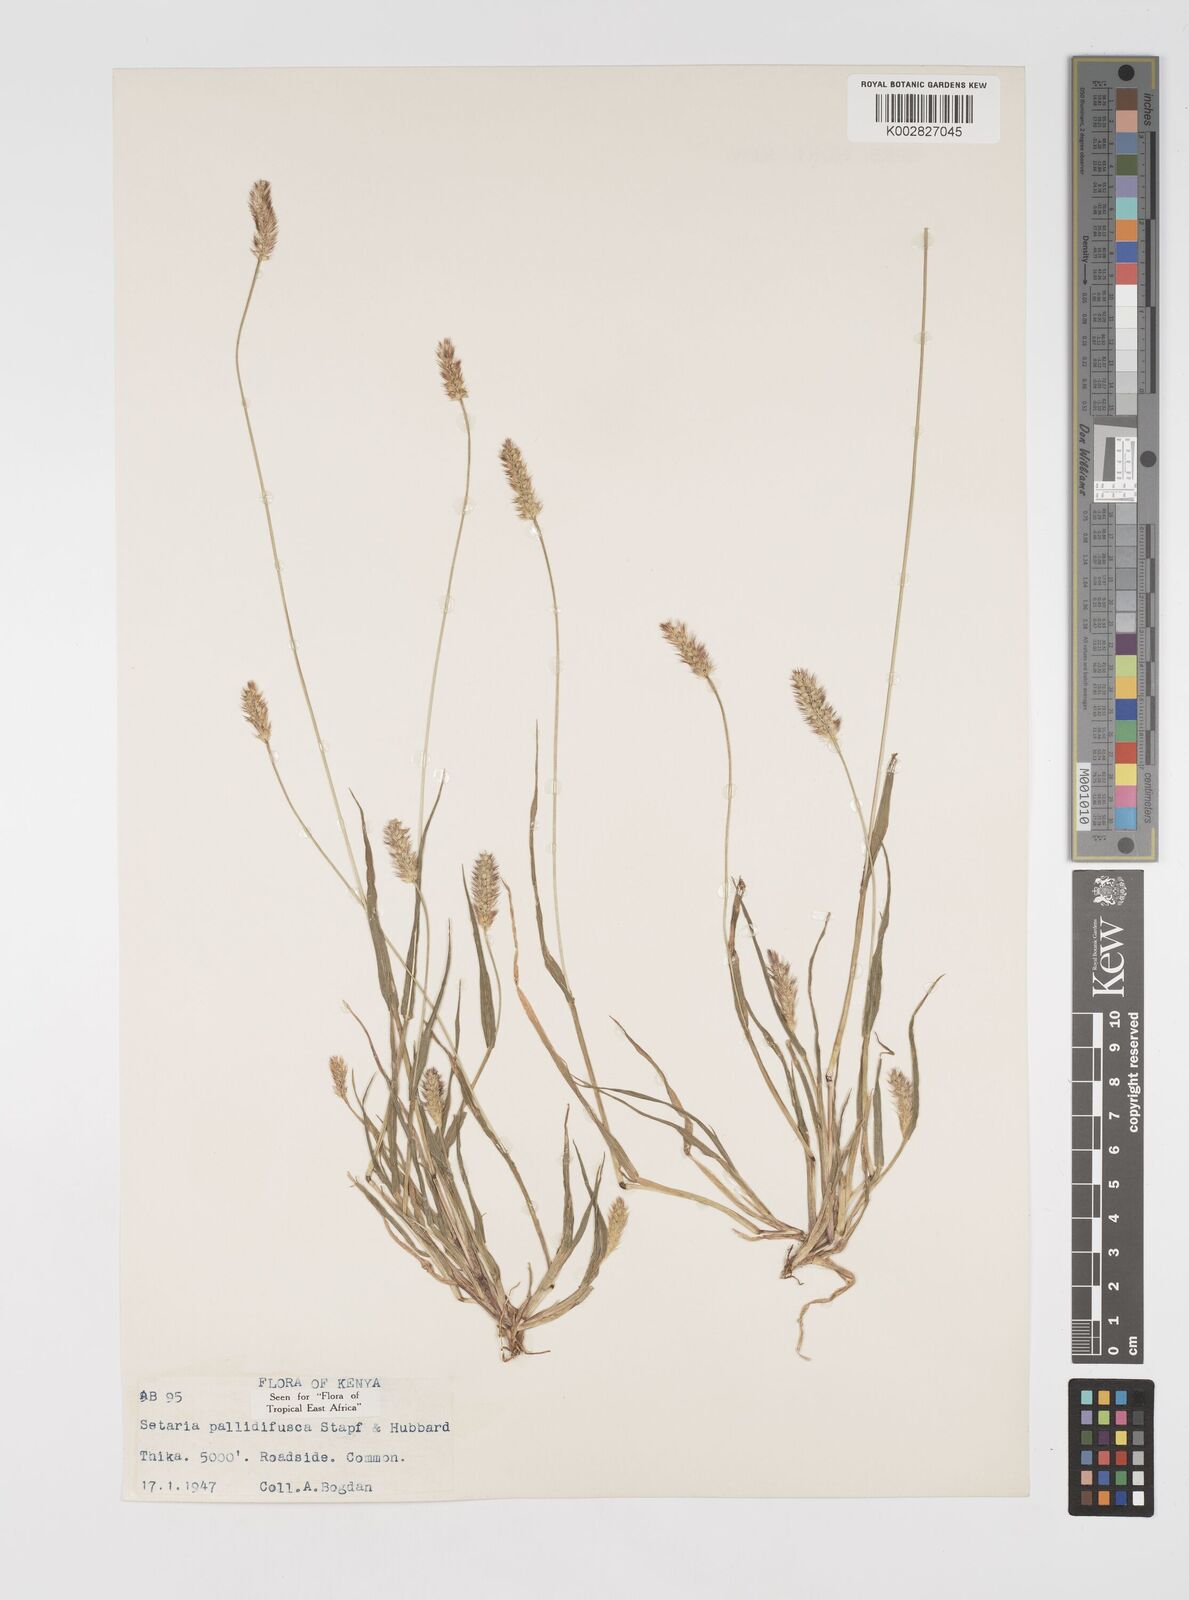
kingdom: Plantae
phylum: Tracheophyta
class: Liliopsida
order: Poales
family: Poaceae
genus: Setaria
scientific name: Setaria pumila
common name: Yellow bristle-grass
